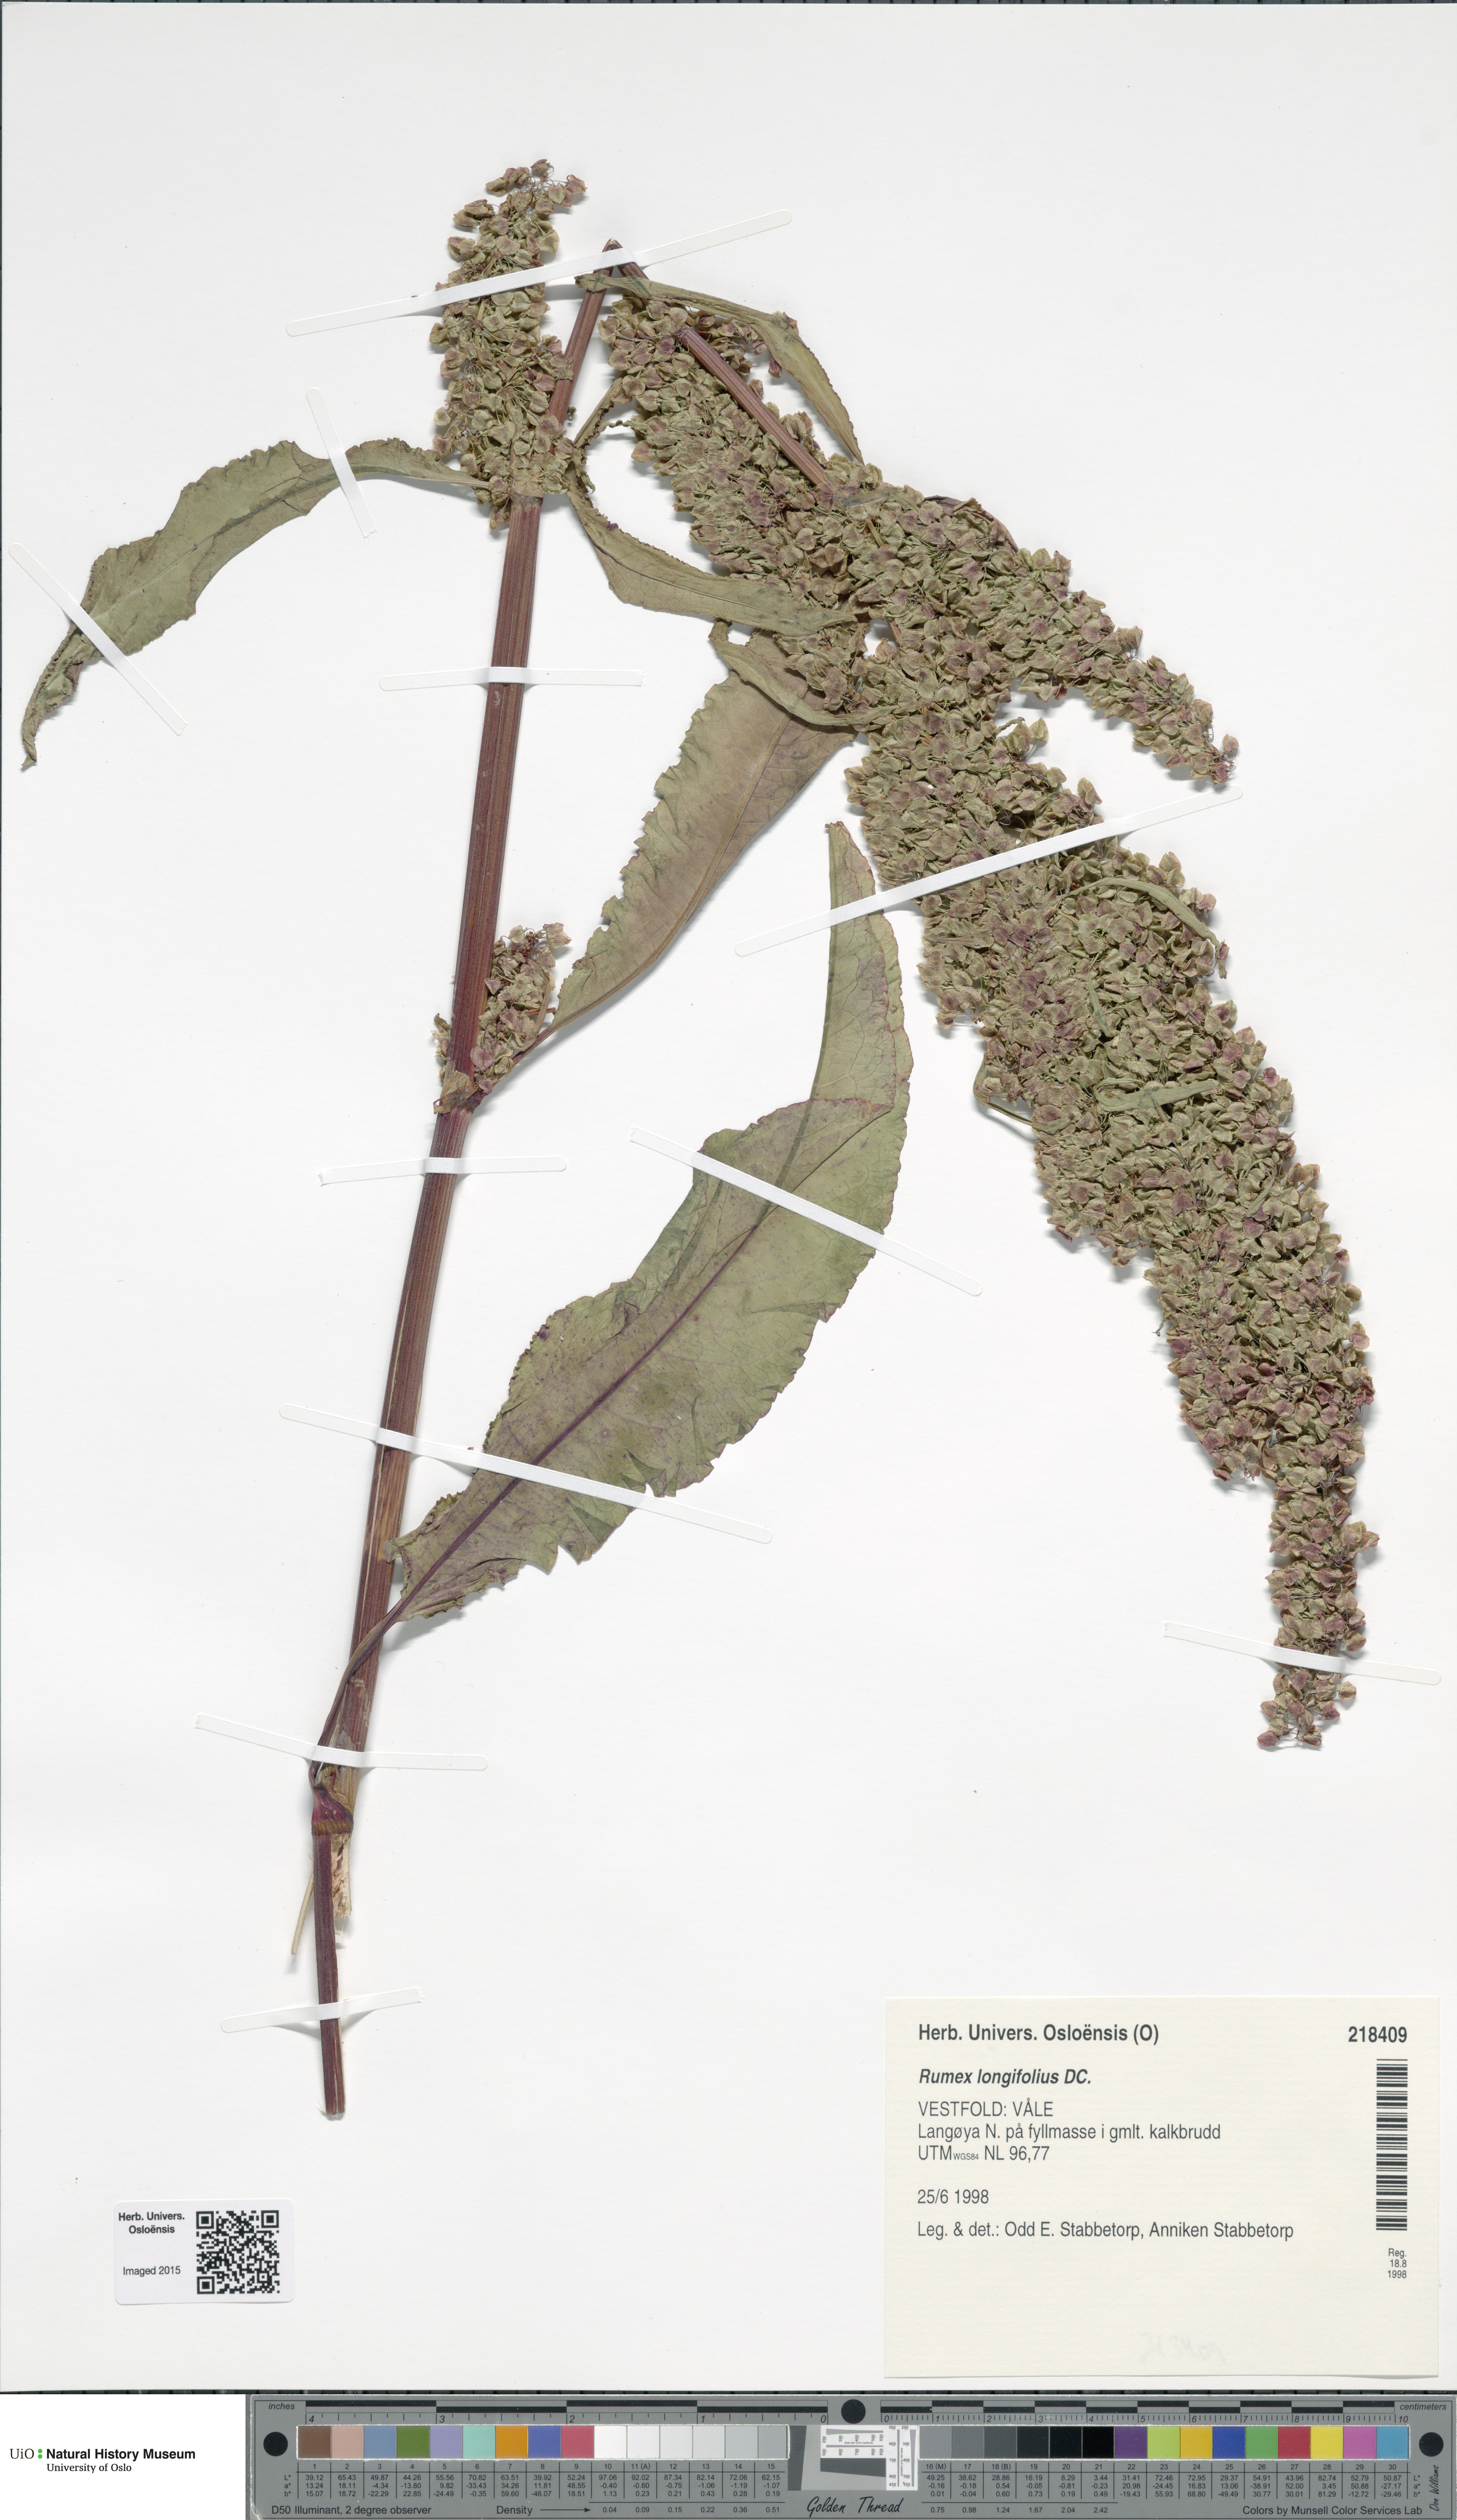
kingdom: Plantae
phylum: Tracheophyta
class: Magnoliopsida
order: Caryophyllales
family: Polygonaceae
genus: Rumex
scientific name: Rumex longifolius
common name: Dooryard dock
